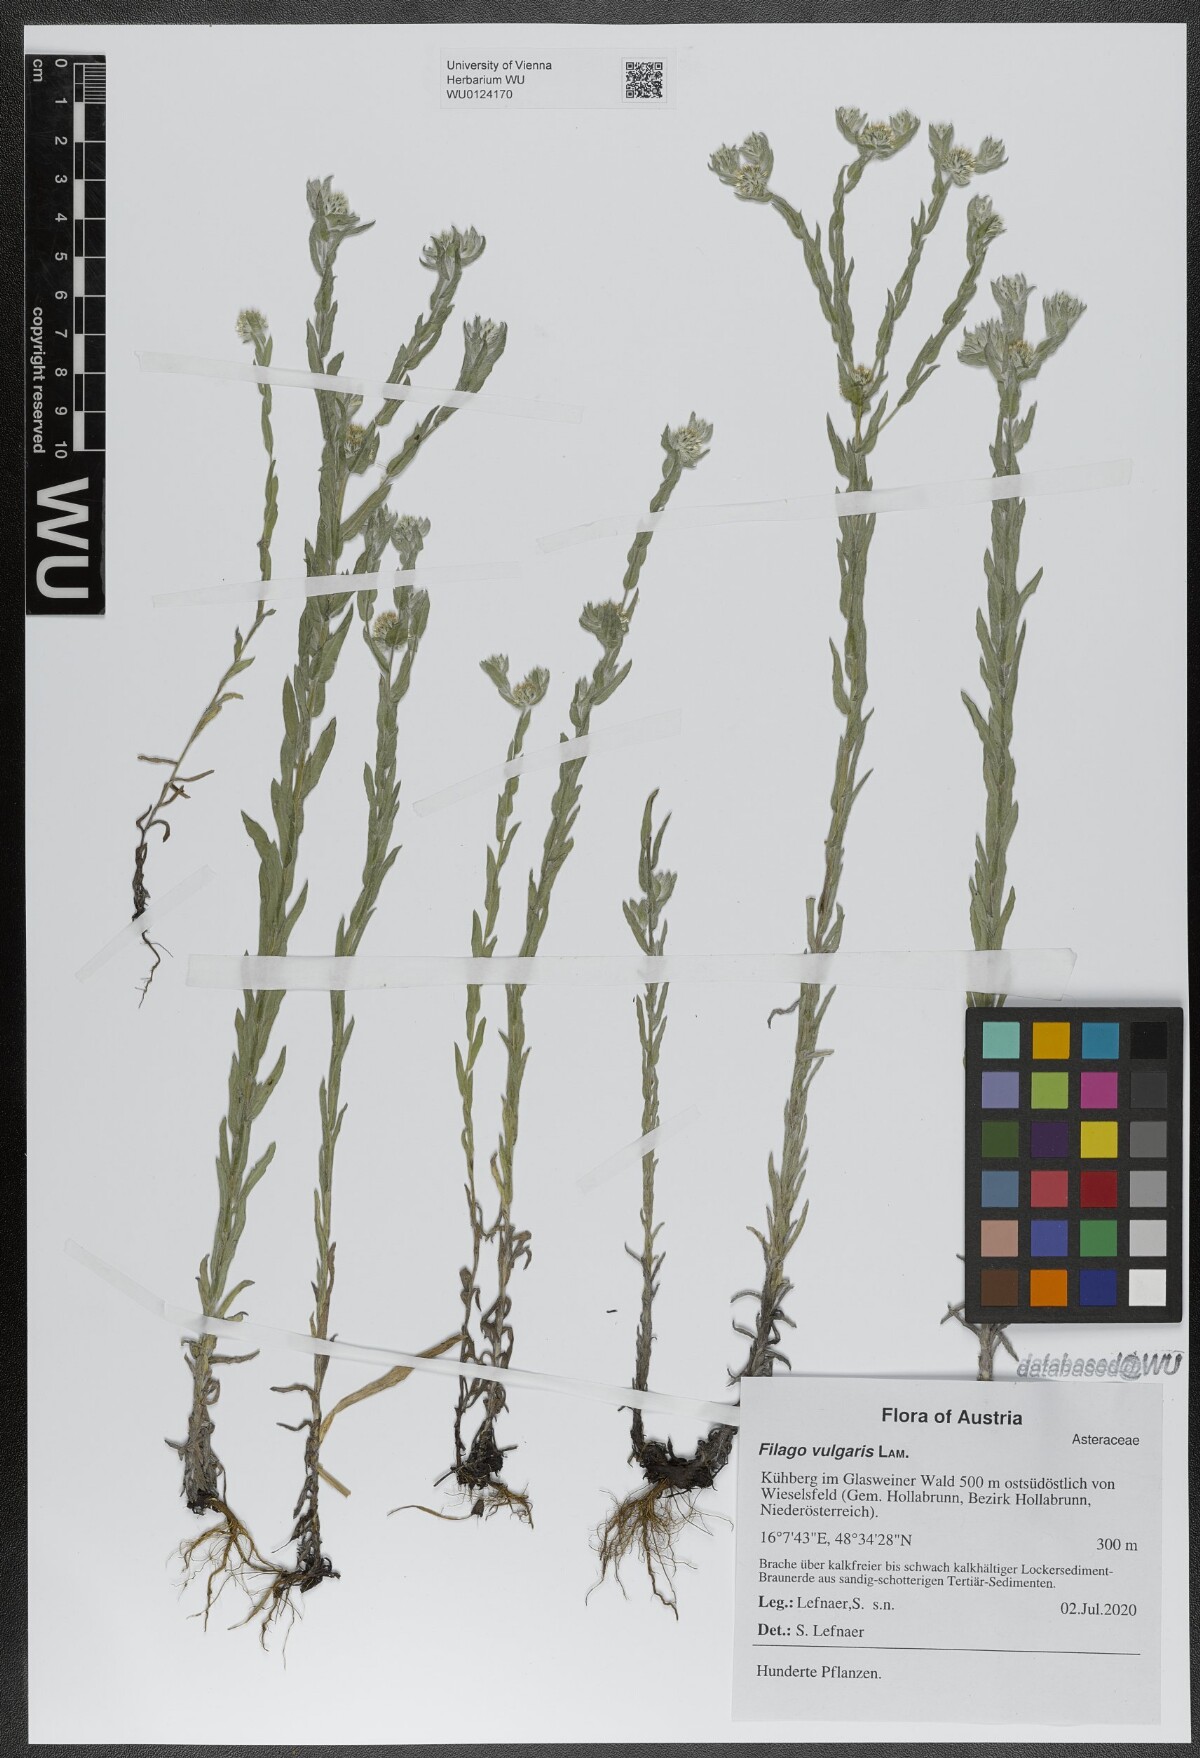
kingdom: Plantae
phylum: Tracheophyta
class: Magnoliopsida
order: Asterales
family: Asteraceae
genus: Filago
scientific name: Filago germanica
